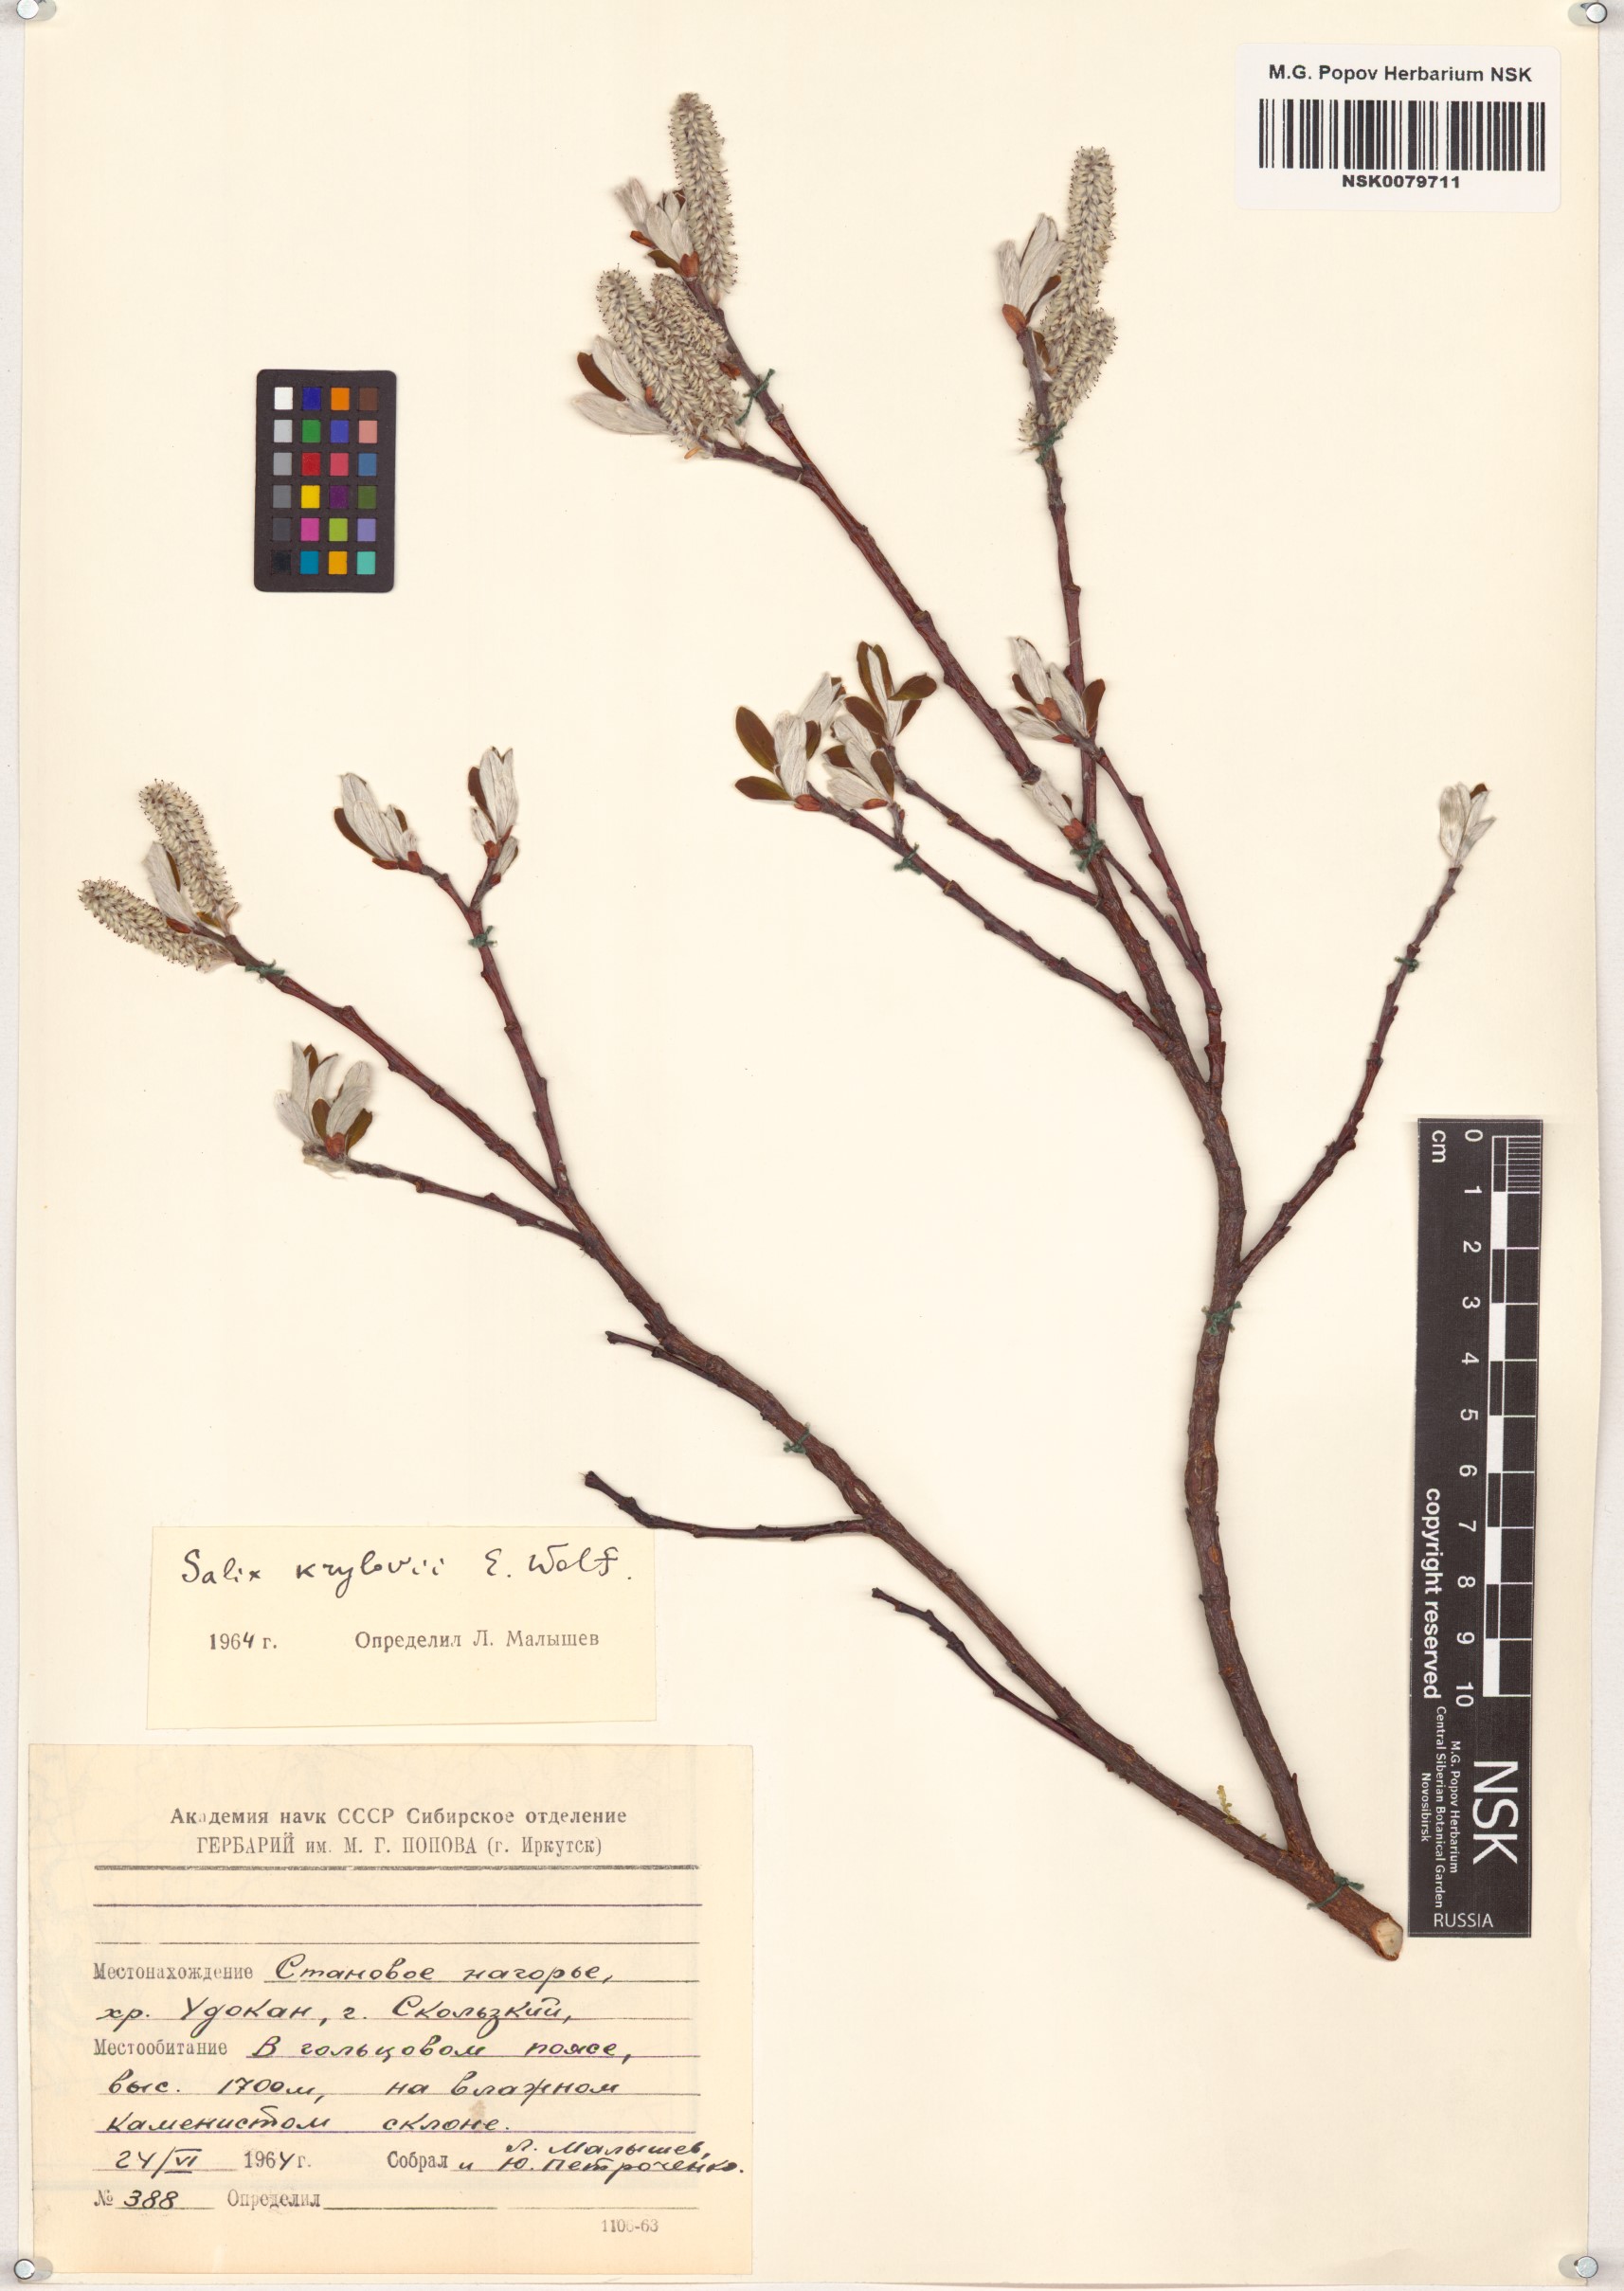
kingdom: Plantae
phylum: Tracheophyta
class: Magnoliopsida
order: Malpighiales
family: Salicaceae
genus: Salix
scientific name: Salix krylovii
